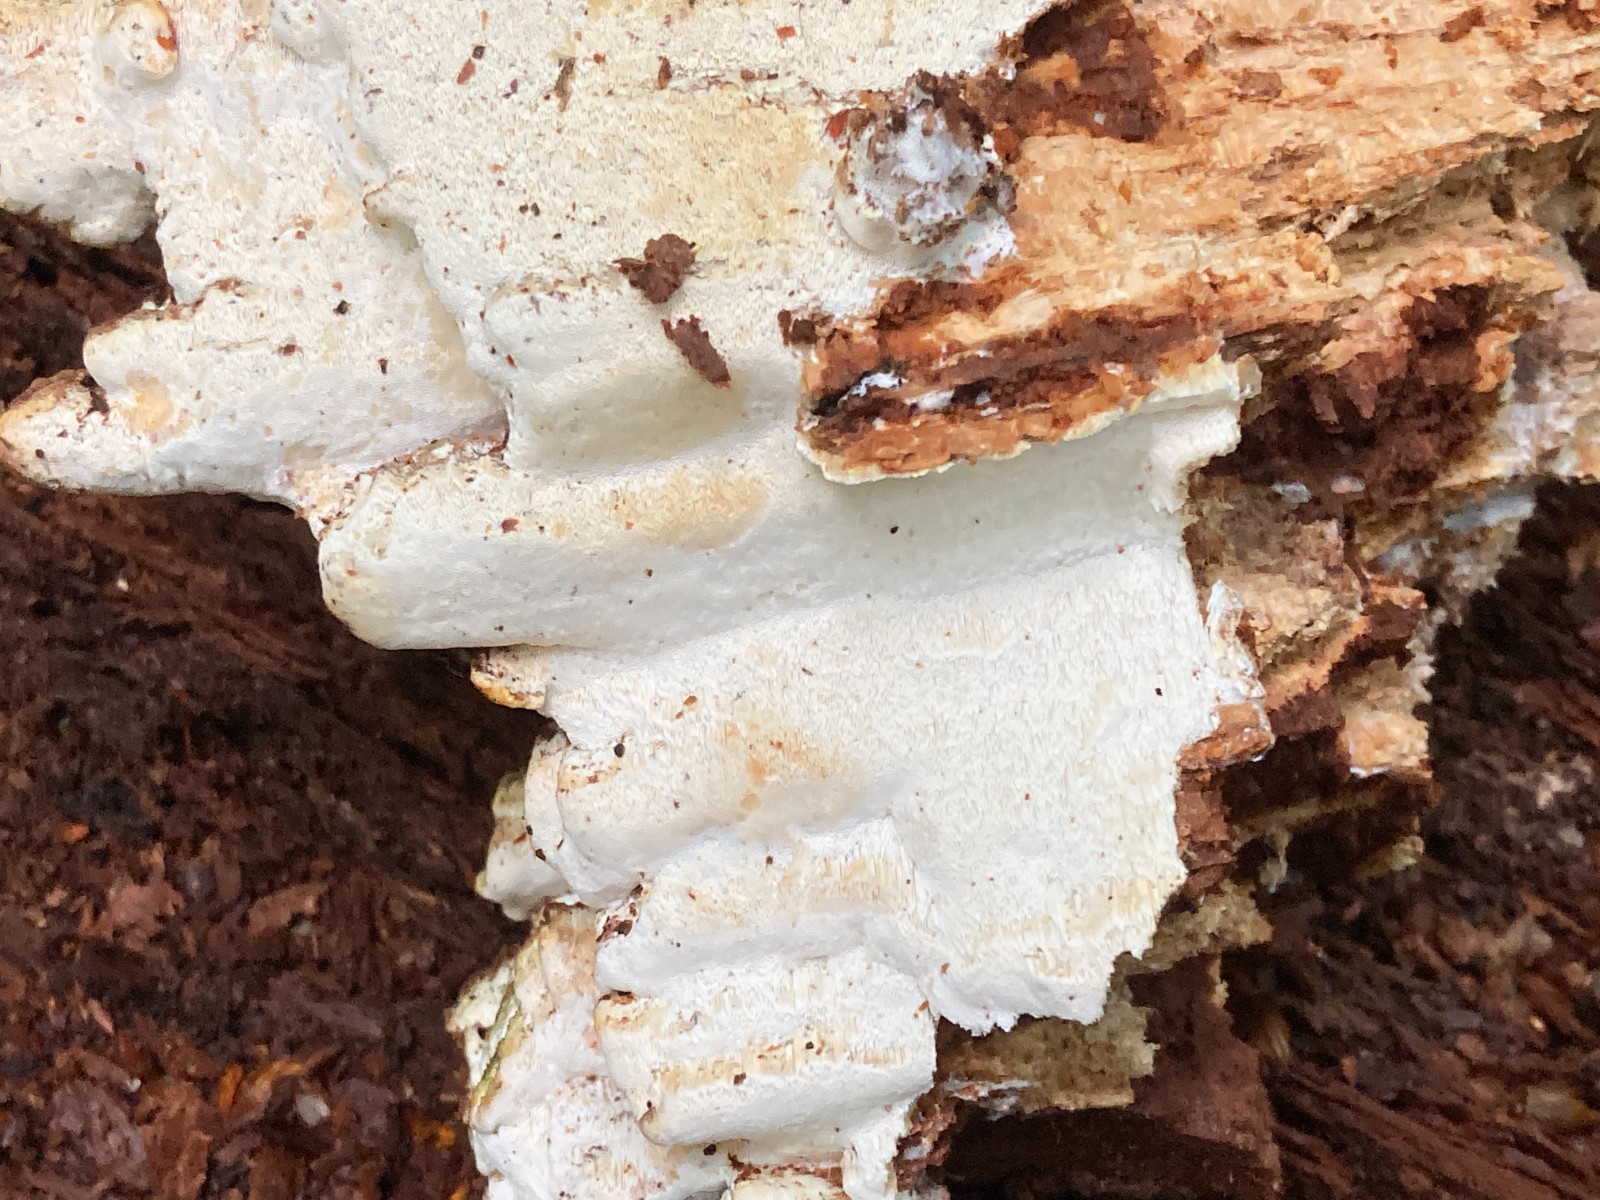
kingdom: Fungi
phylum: Basidiomycota
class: Agaricomycetes
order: Hymenochaetales
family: Rickenellaceae
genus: Sidera
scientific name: Sidera vulgaris
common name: fin flødeporesvamp
